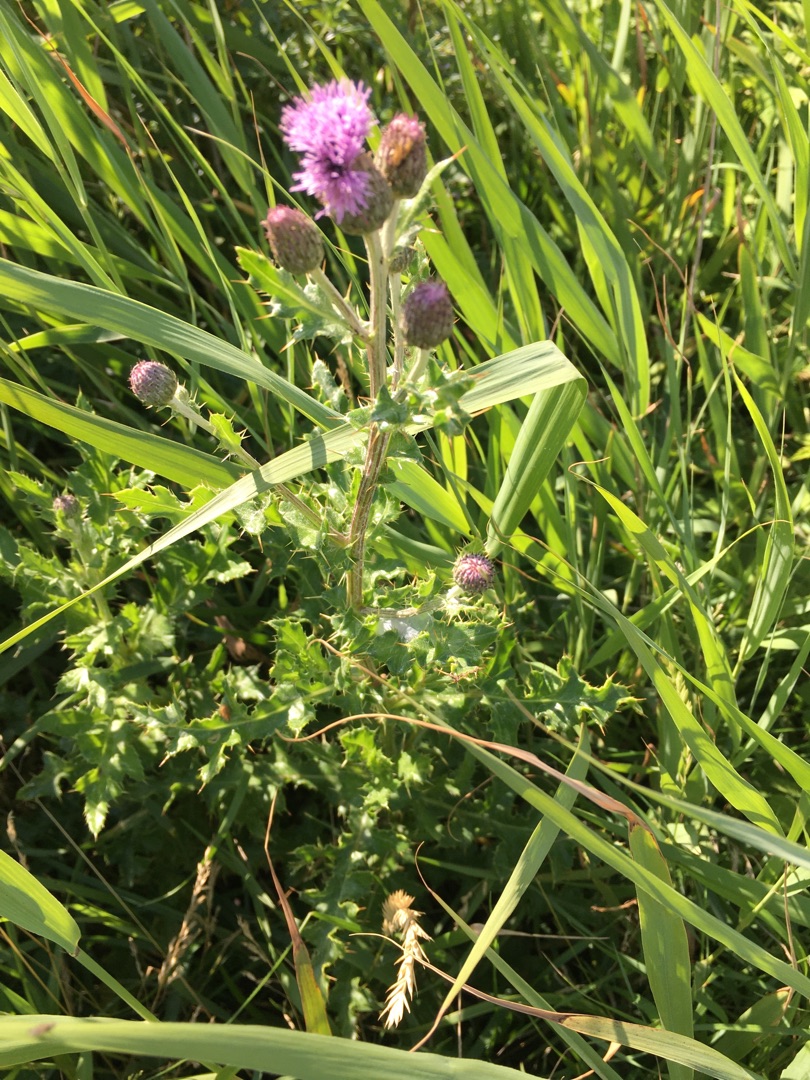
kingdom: Plantae
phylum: Tracheophyta
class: Magnoliopsida
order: Asterales
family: Asteraceae
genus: Cirsium
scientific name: Cirsium arvense
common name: Ager-tidsel
